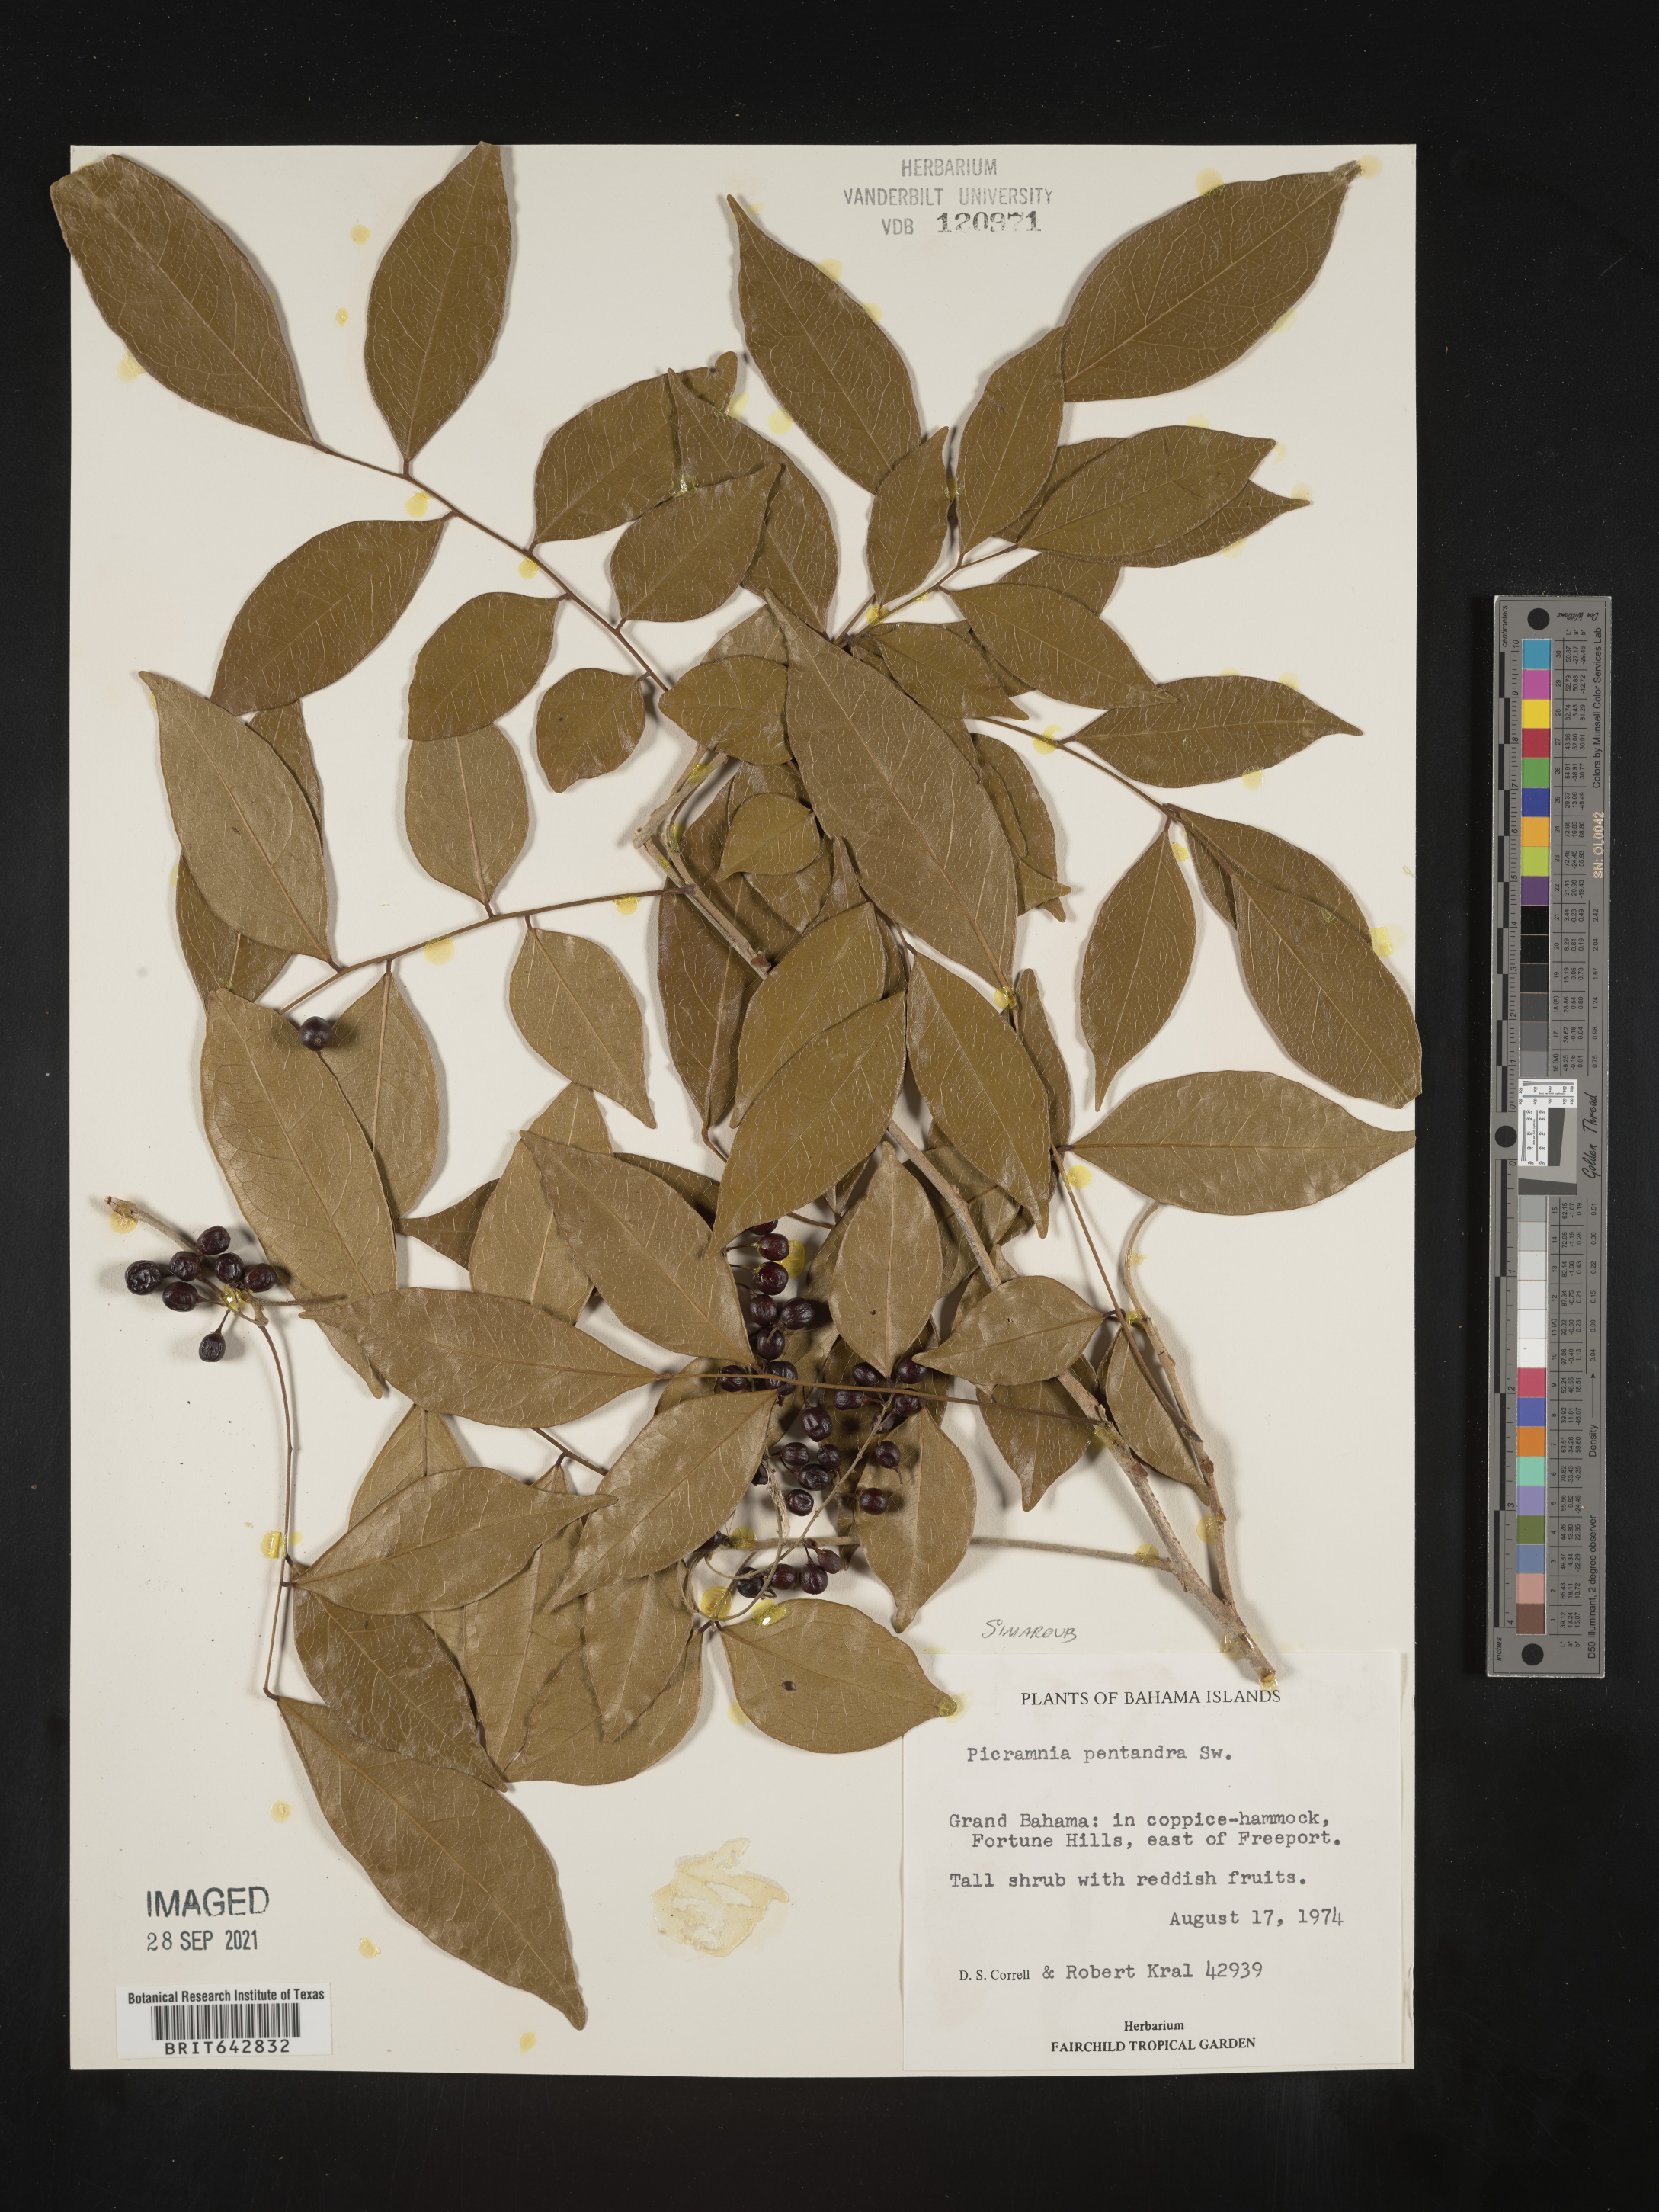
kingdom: Plantae
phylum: Tracheophyta
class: Magnoliopsida
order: Picramniales
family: Picramniaceae
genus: Picramnia
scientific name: Picramnia
